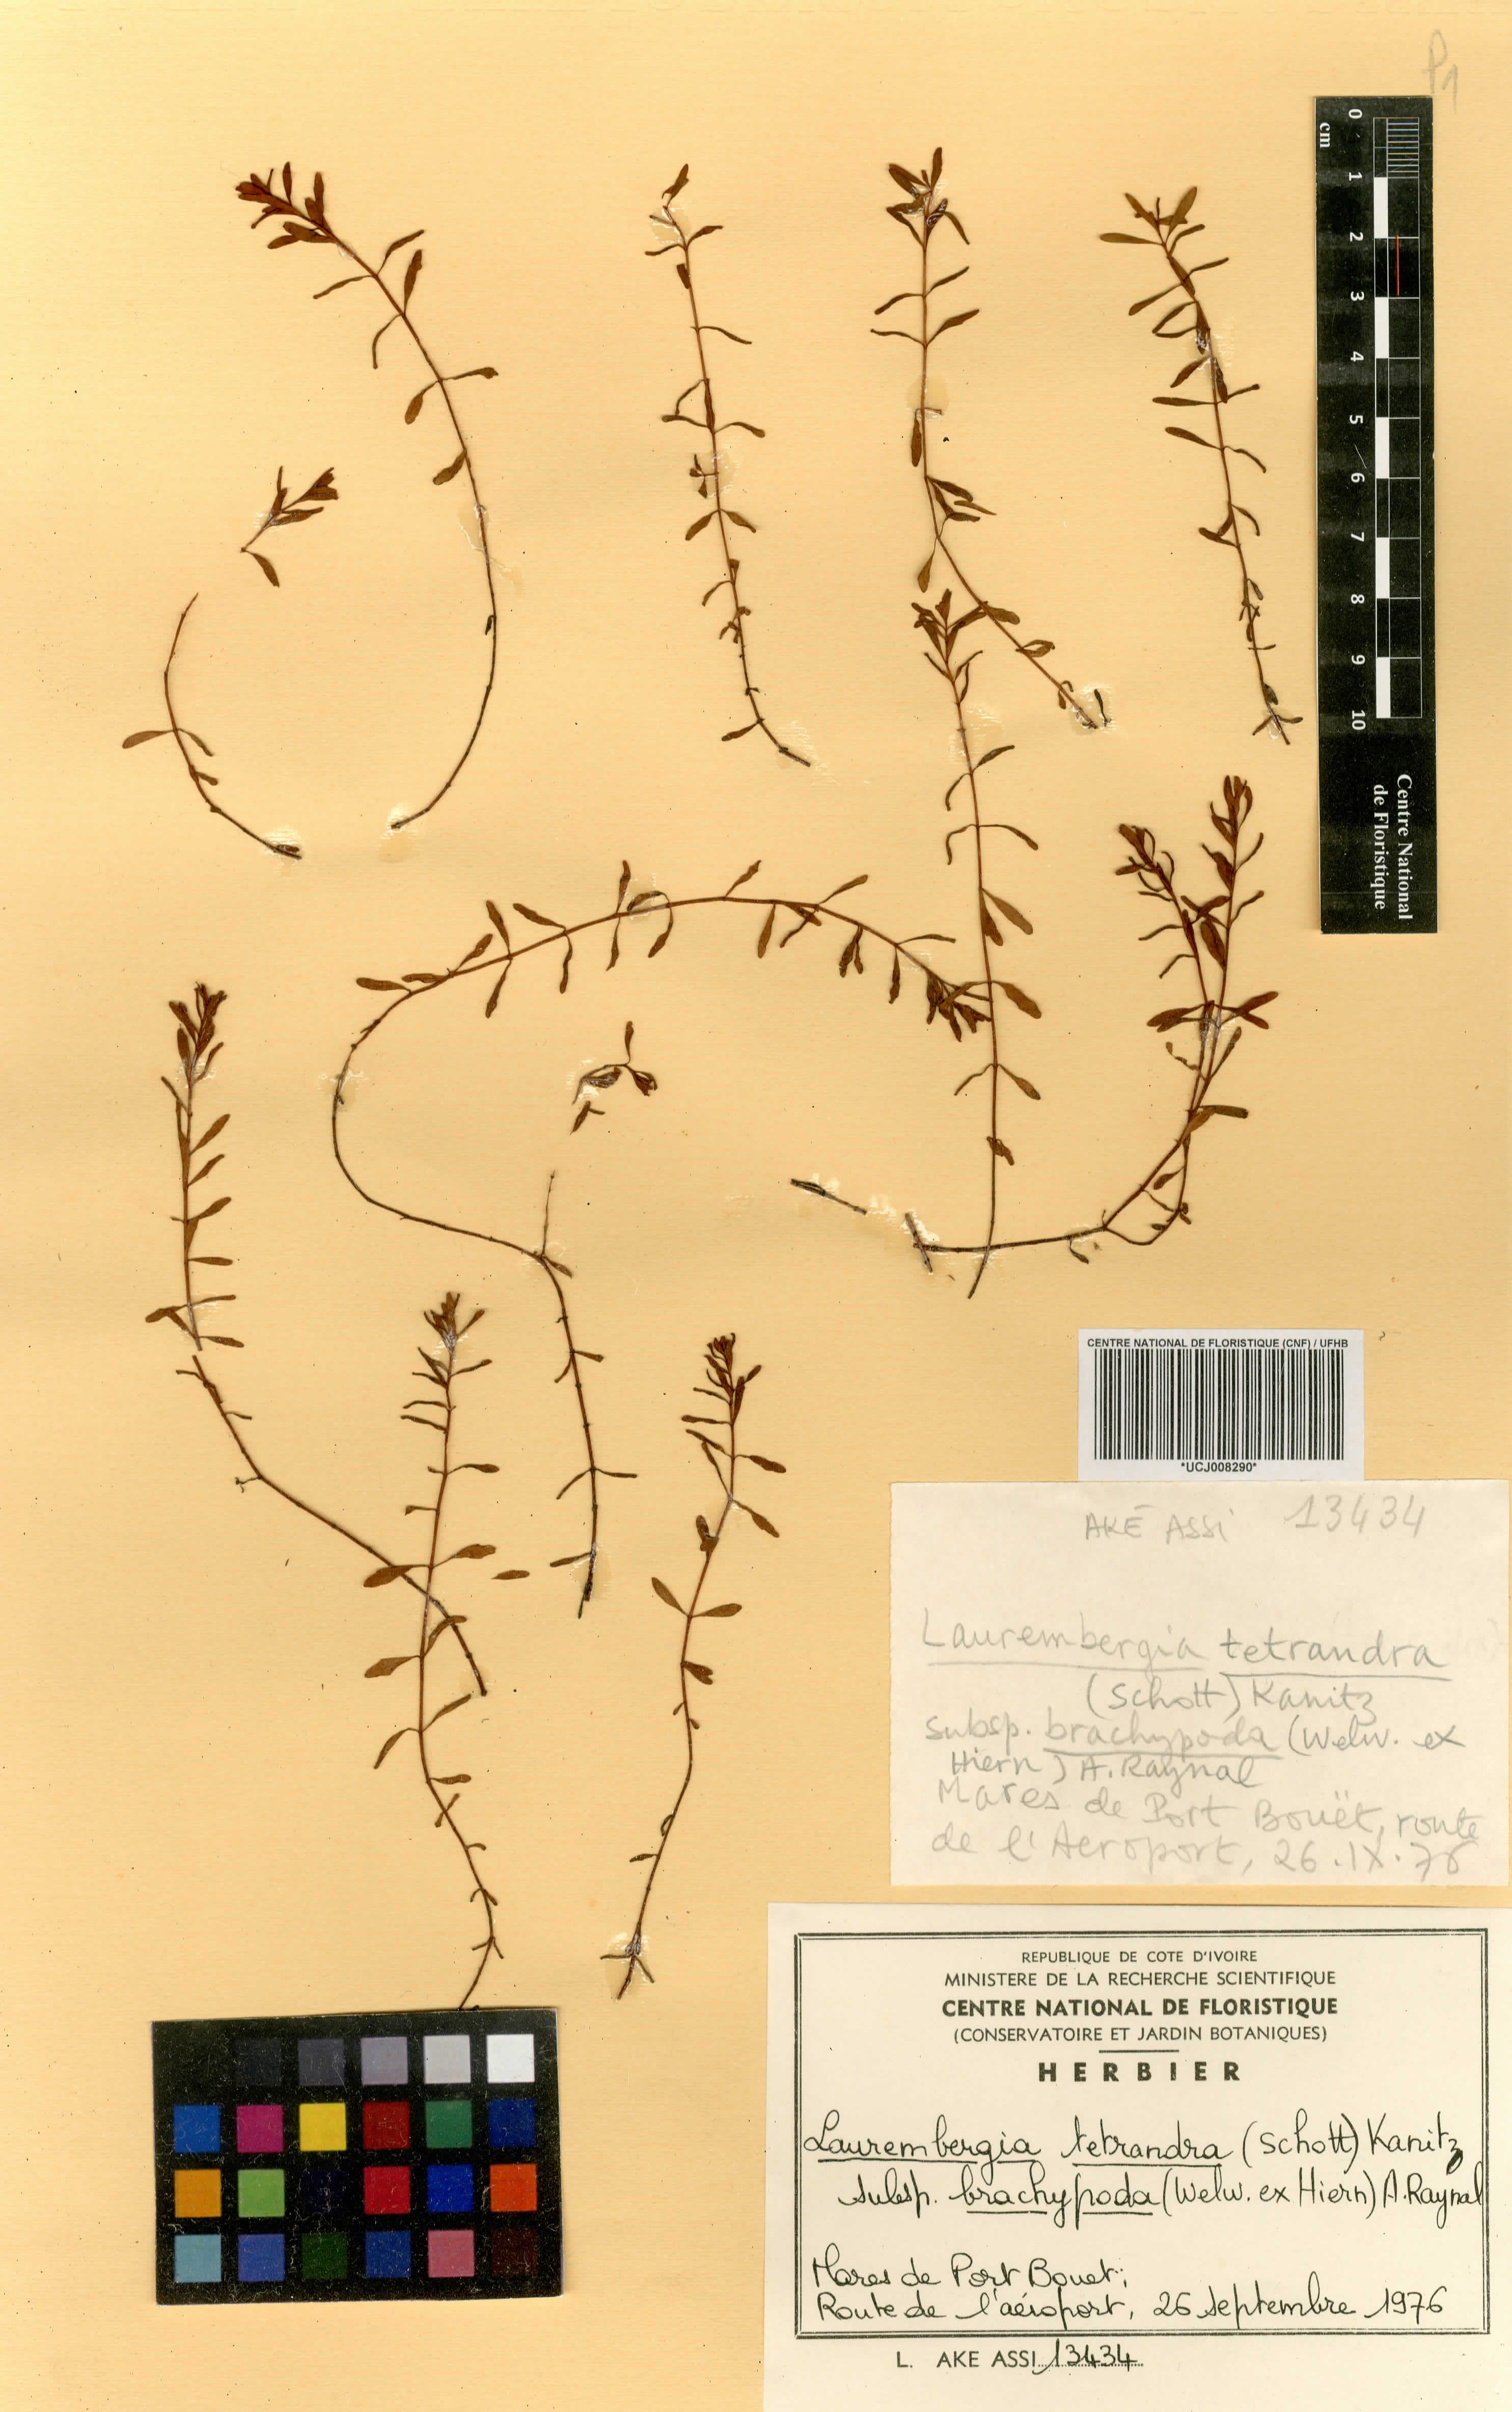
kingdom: Plantae
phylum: Tracheophyta
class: Magnoliopsida
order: Saxifragales
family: Haloragaceae
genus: Laurembergia
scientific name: Laurembergia repens
